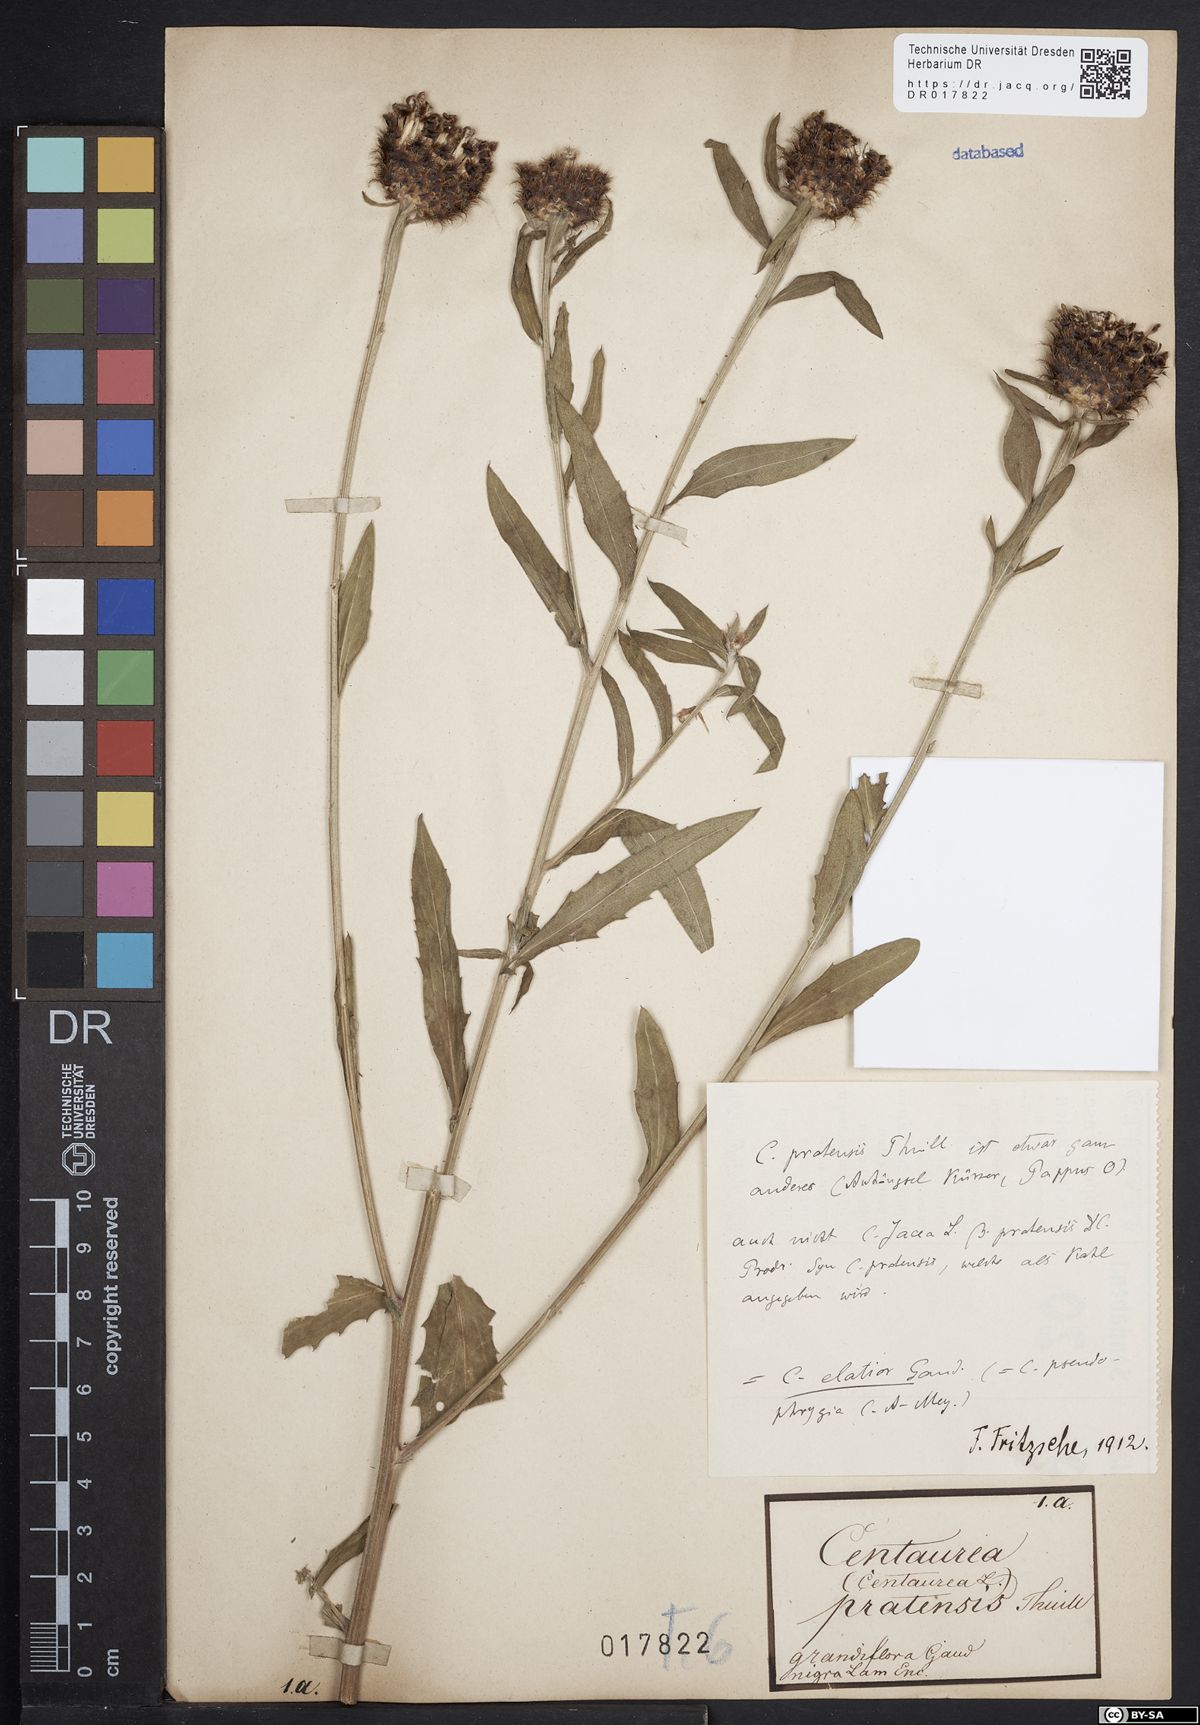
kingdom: Plantae
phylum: Tracheophyta
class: Magnoliopsida
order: Asterales
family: Asteraceae
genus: Centaurea
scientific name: Centaurea pseudophrygia
